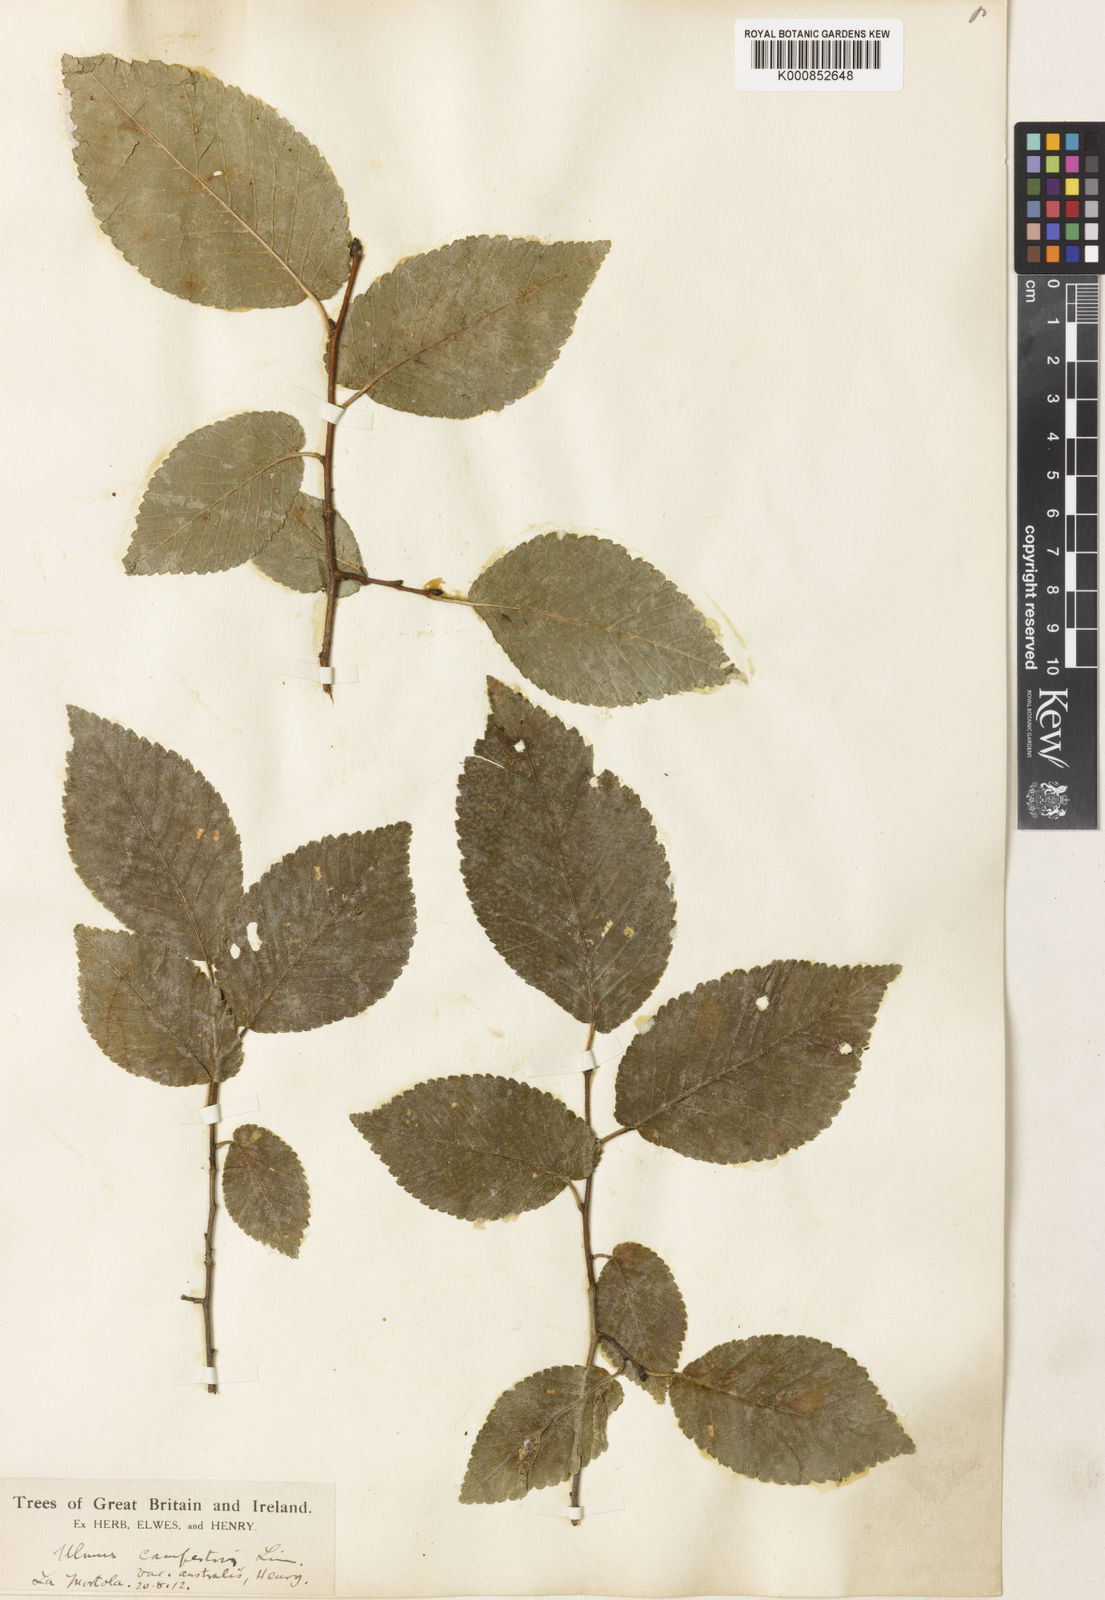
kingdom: Plantae
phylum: Tracheophyta
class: Magnoliopsida
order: Rosales
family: Ulmaceae
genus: Ulmus
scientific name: Ulmus minor
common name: Small-leaved elm
